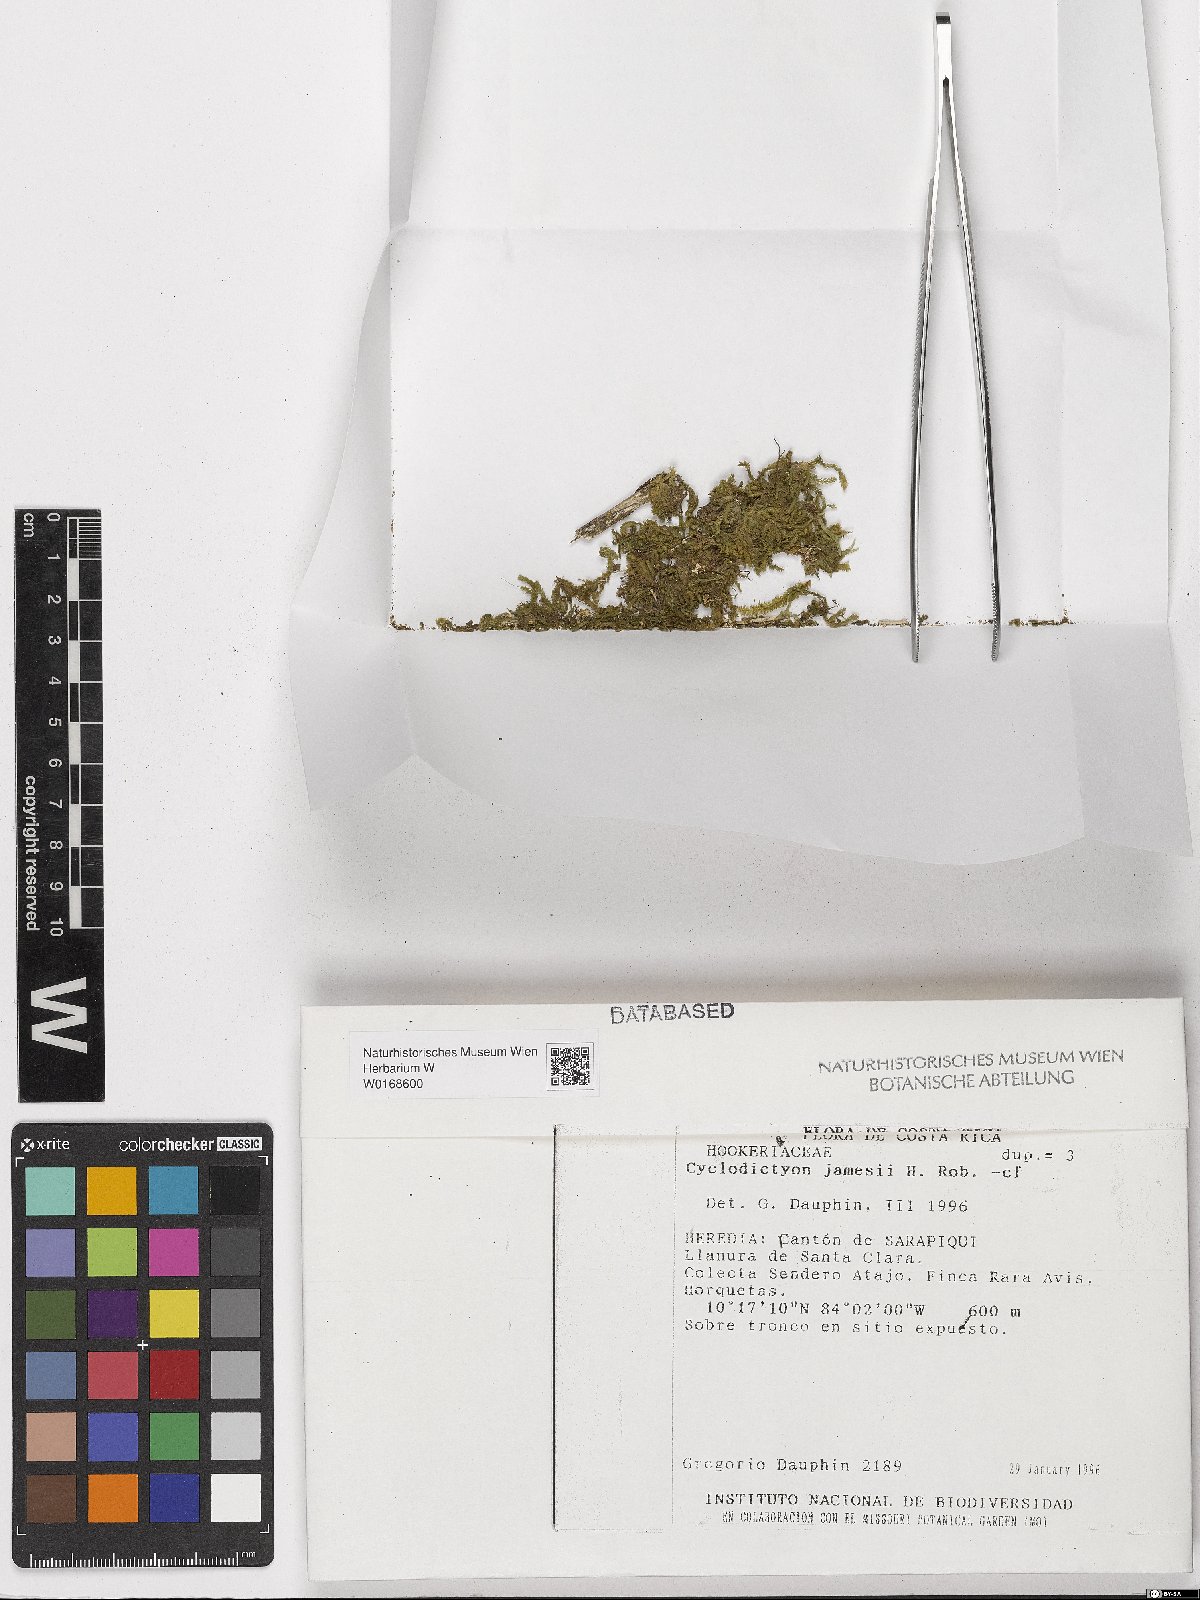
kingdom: Plantae
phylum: Bryophyta
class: Bryopsida
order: Hookeriales
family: Pilotrichaceae
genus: Cyclodictyon
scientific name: Cyclodictyon
